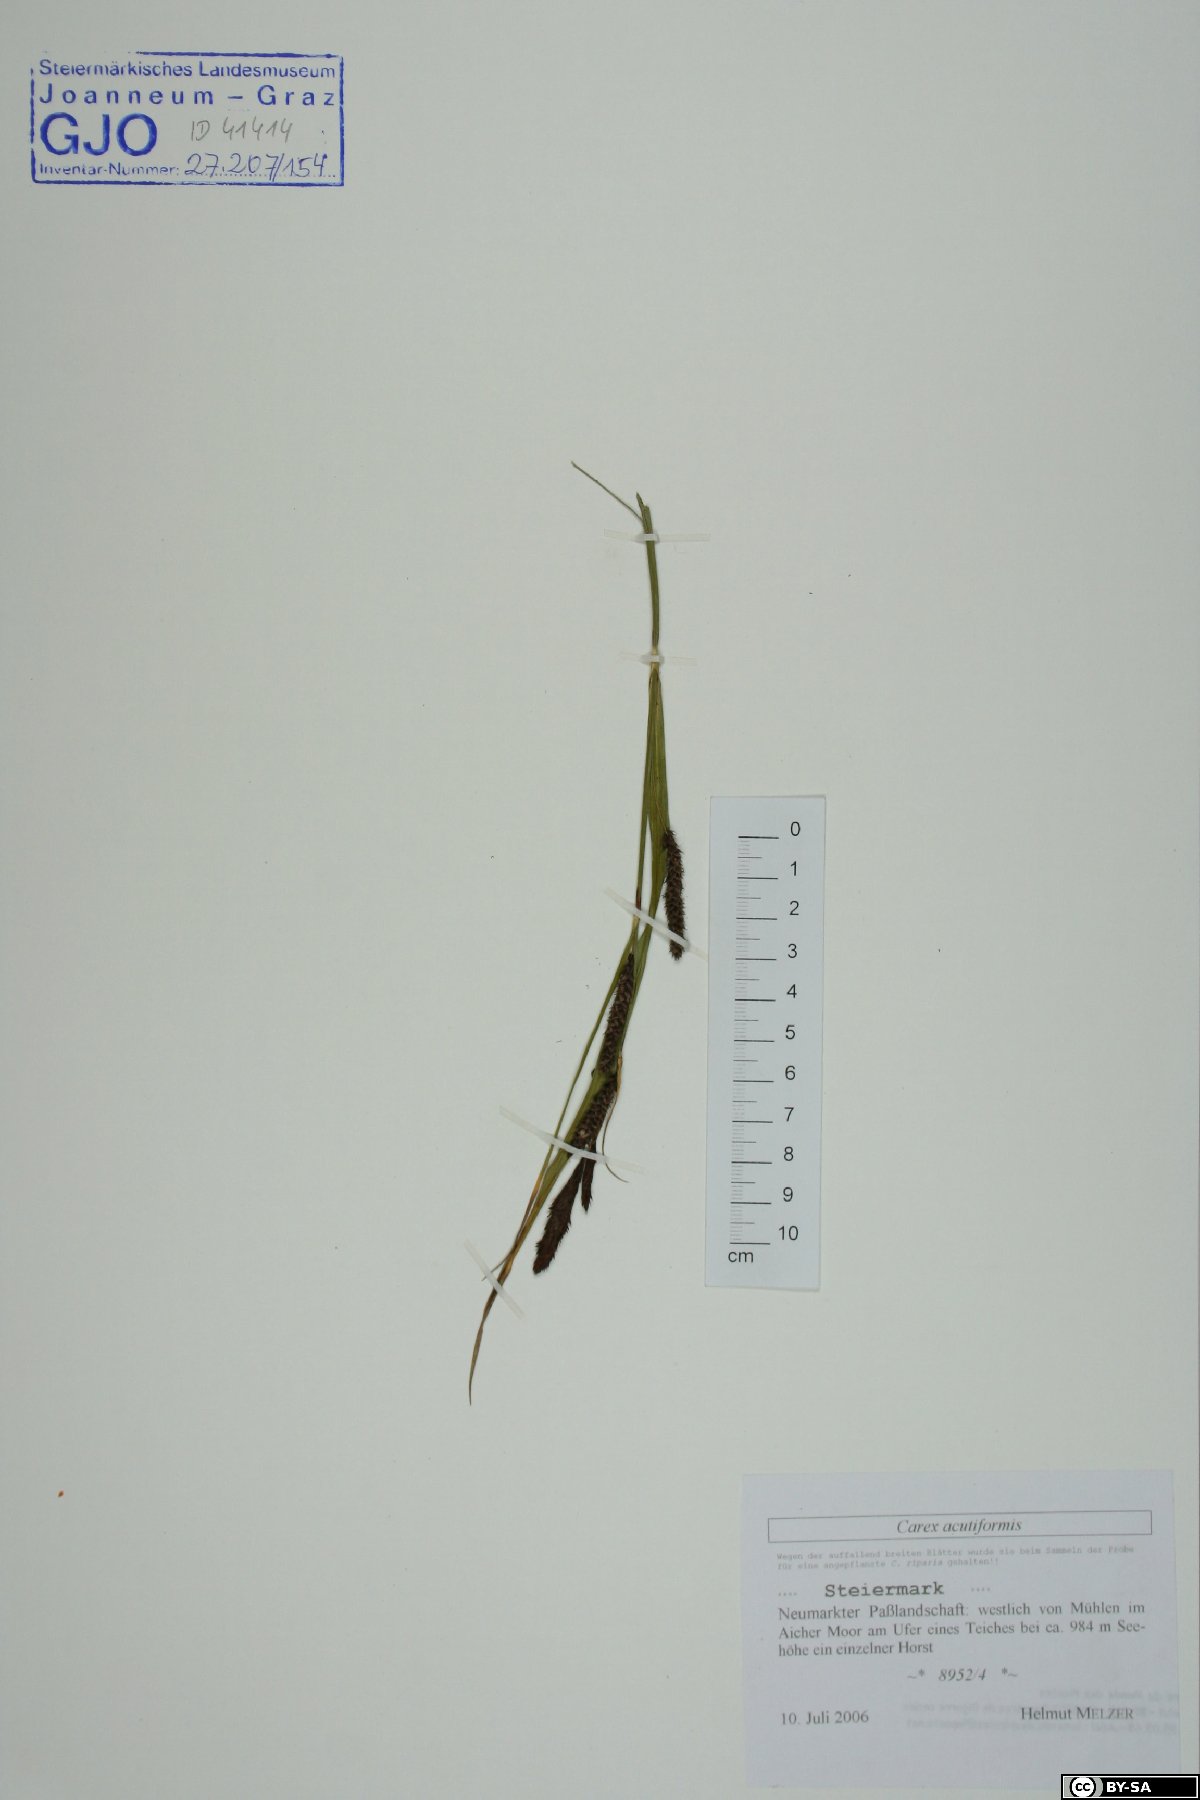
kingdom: Plantae
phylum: Tracheophyta
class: Liliopsida
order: Poales
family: Cyperaceae
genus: Carex
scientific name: Carex acutiformis
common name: Lesser pond-sedge
